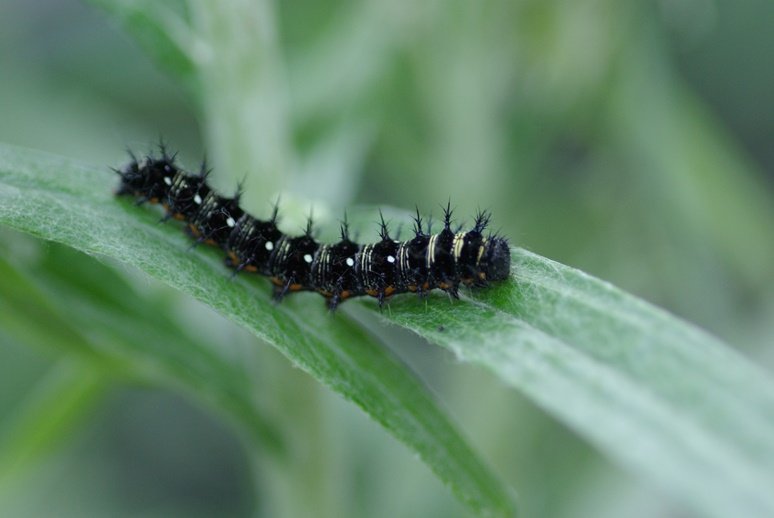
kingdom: Animalia
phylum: Arthropoda
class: Insecta
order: Lepidoptera
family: Nymphalidae
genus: Vanessa
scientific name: Vanessa virginiensis
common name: American Lady
